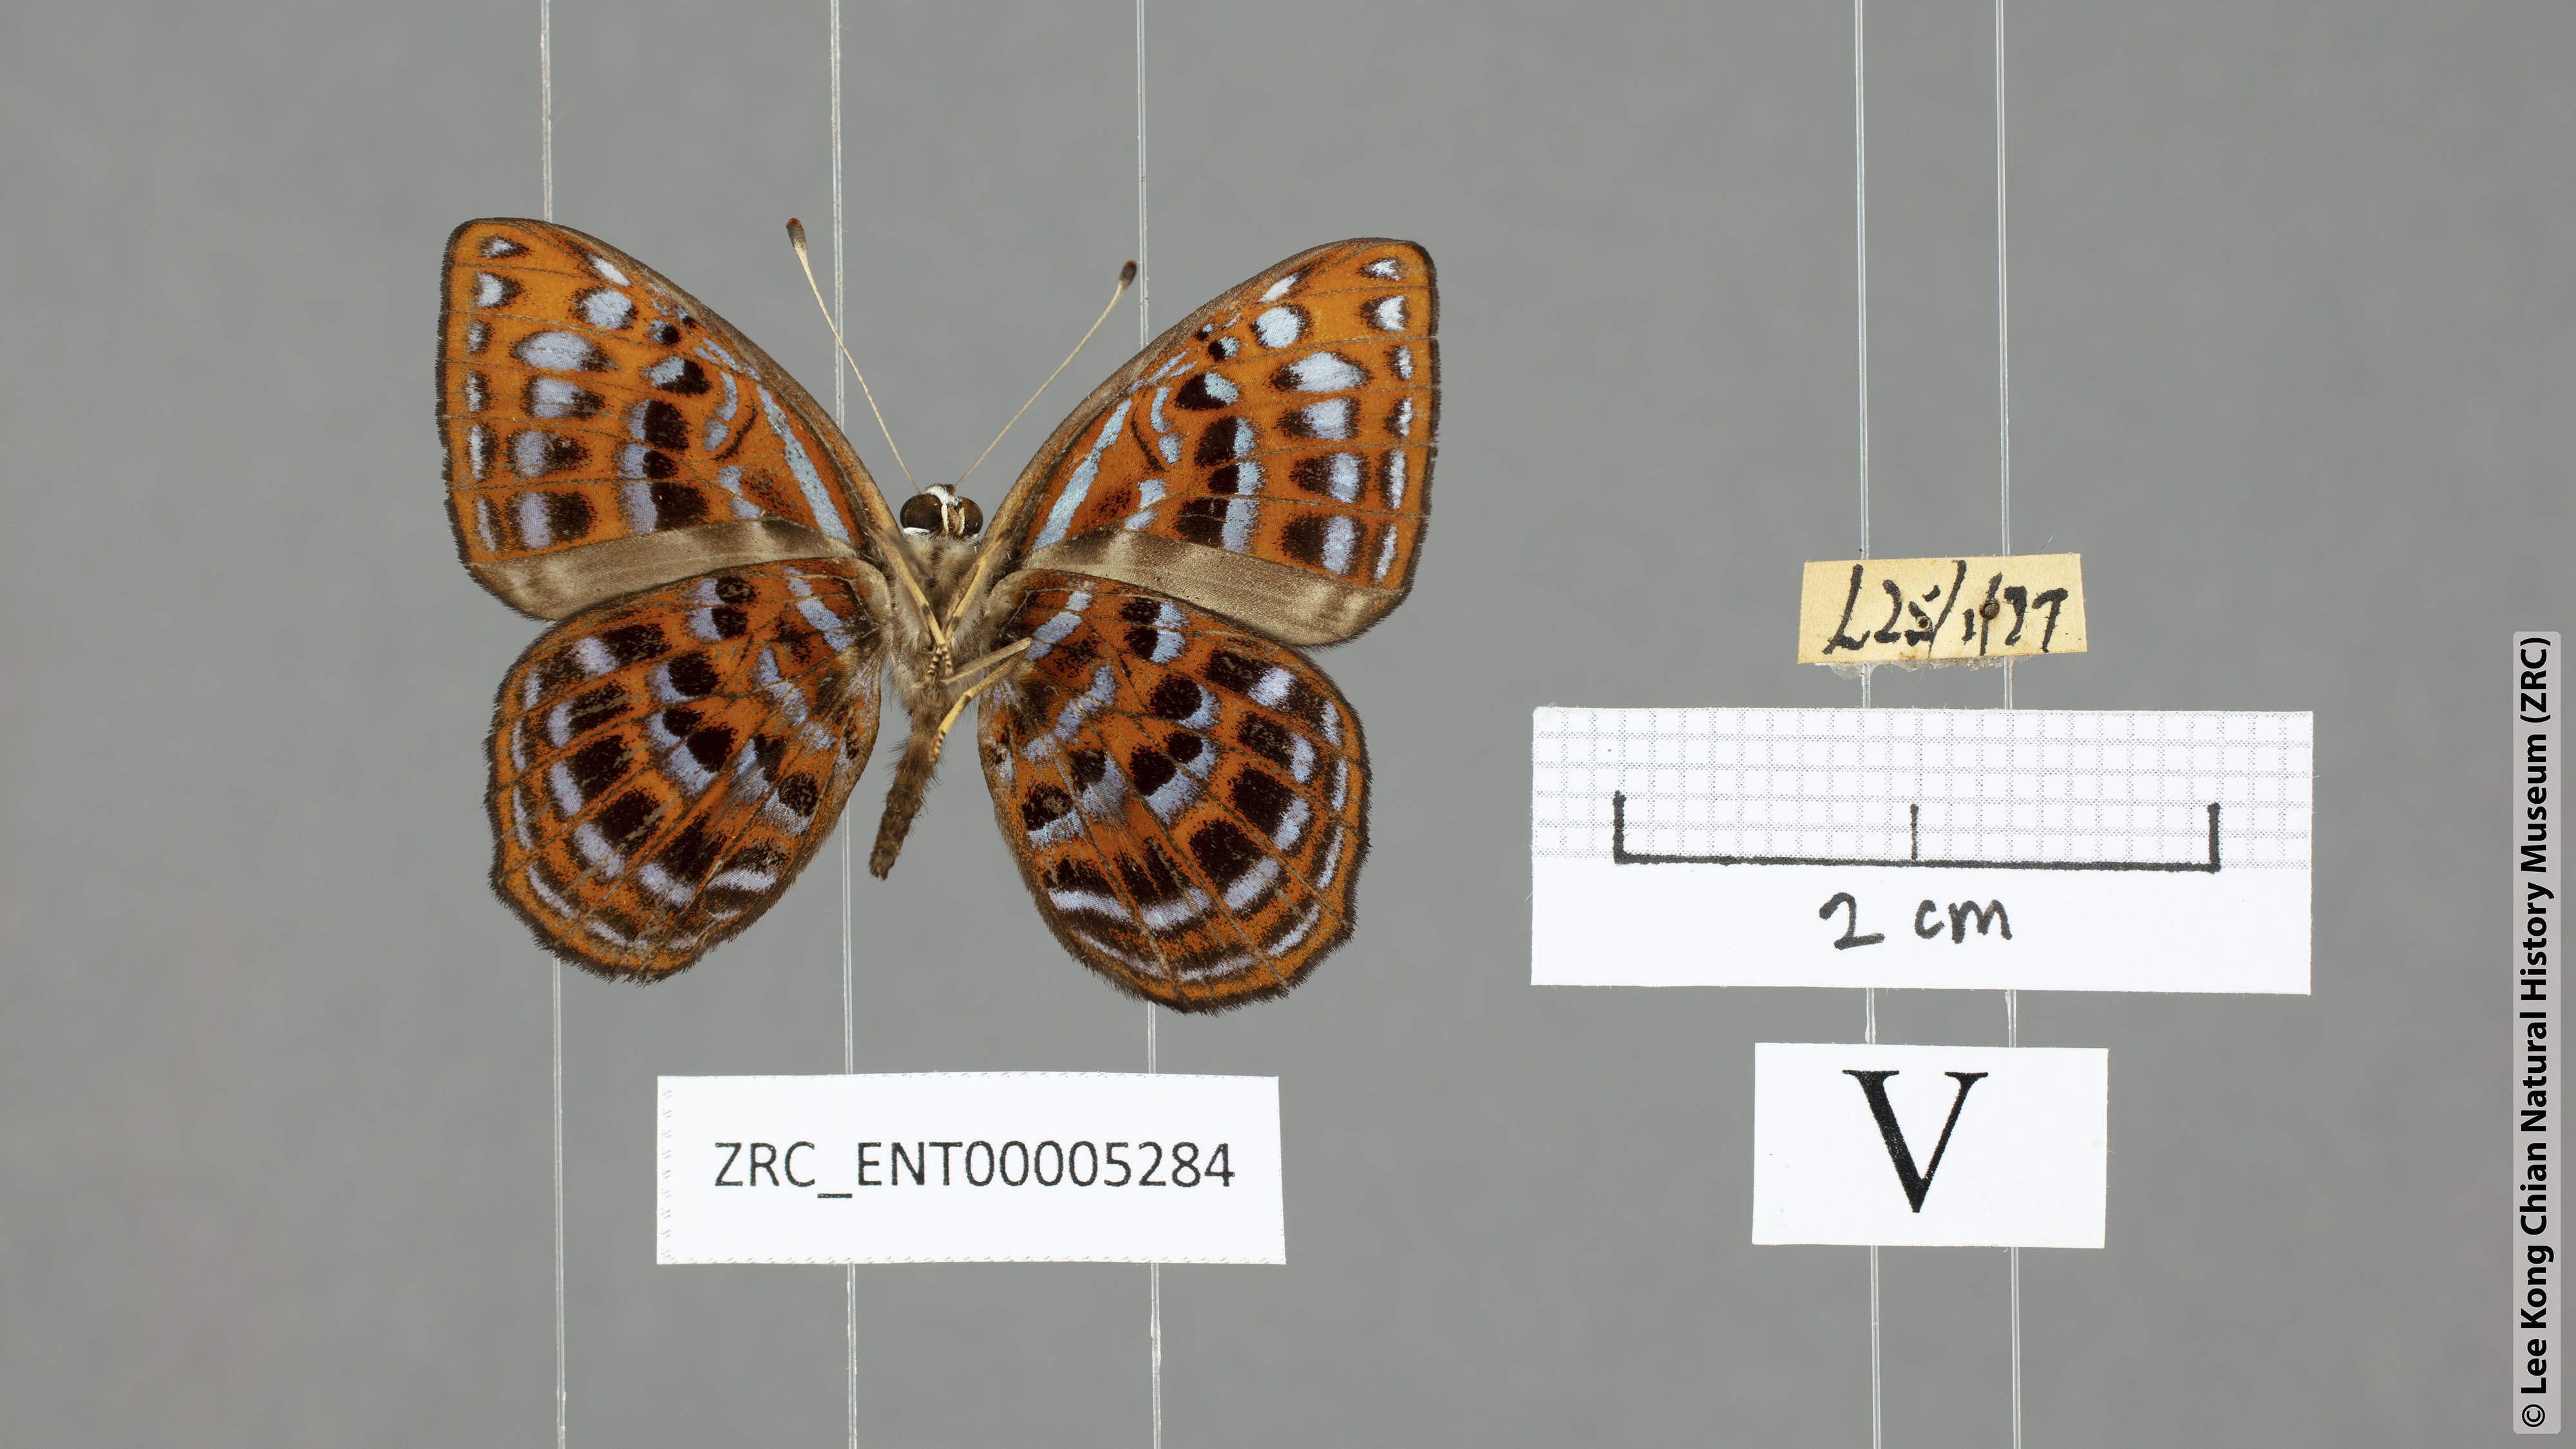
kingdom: Animalia
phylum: Arthropoda
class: Insecta
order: Lepidoptera
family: Riodinidae
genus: Laxita
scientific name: Laxita thuisto
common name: Lesser harlequin
